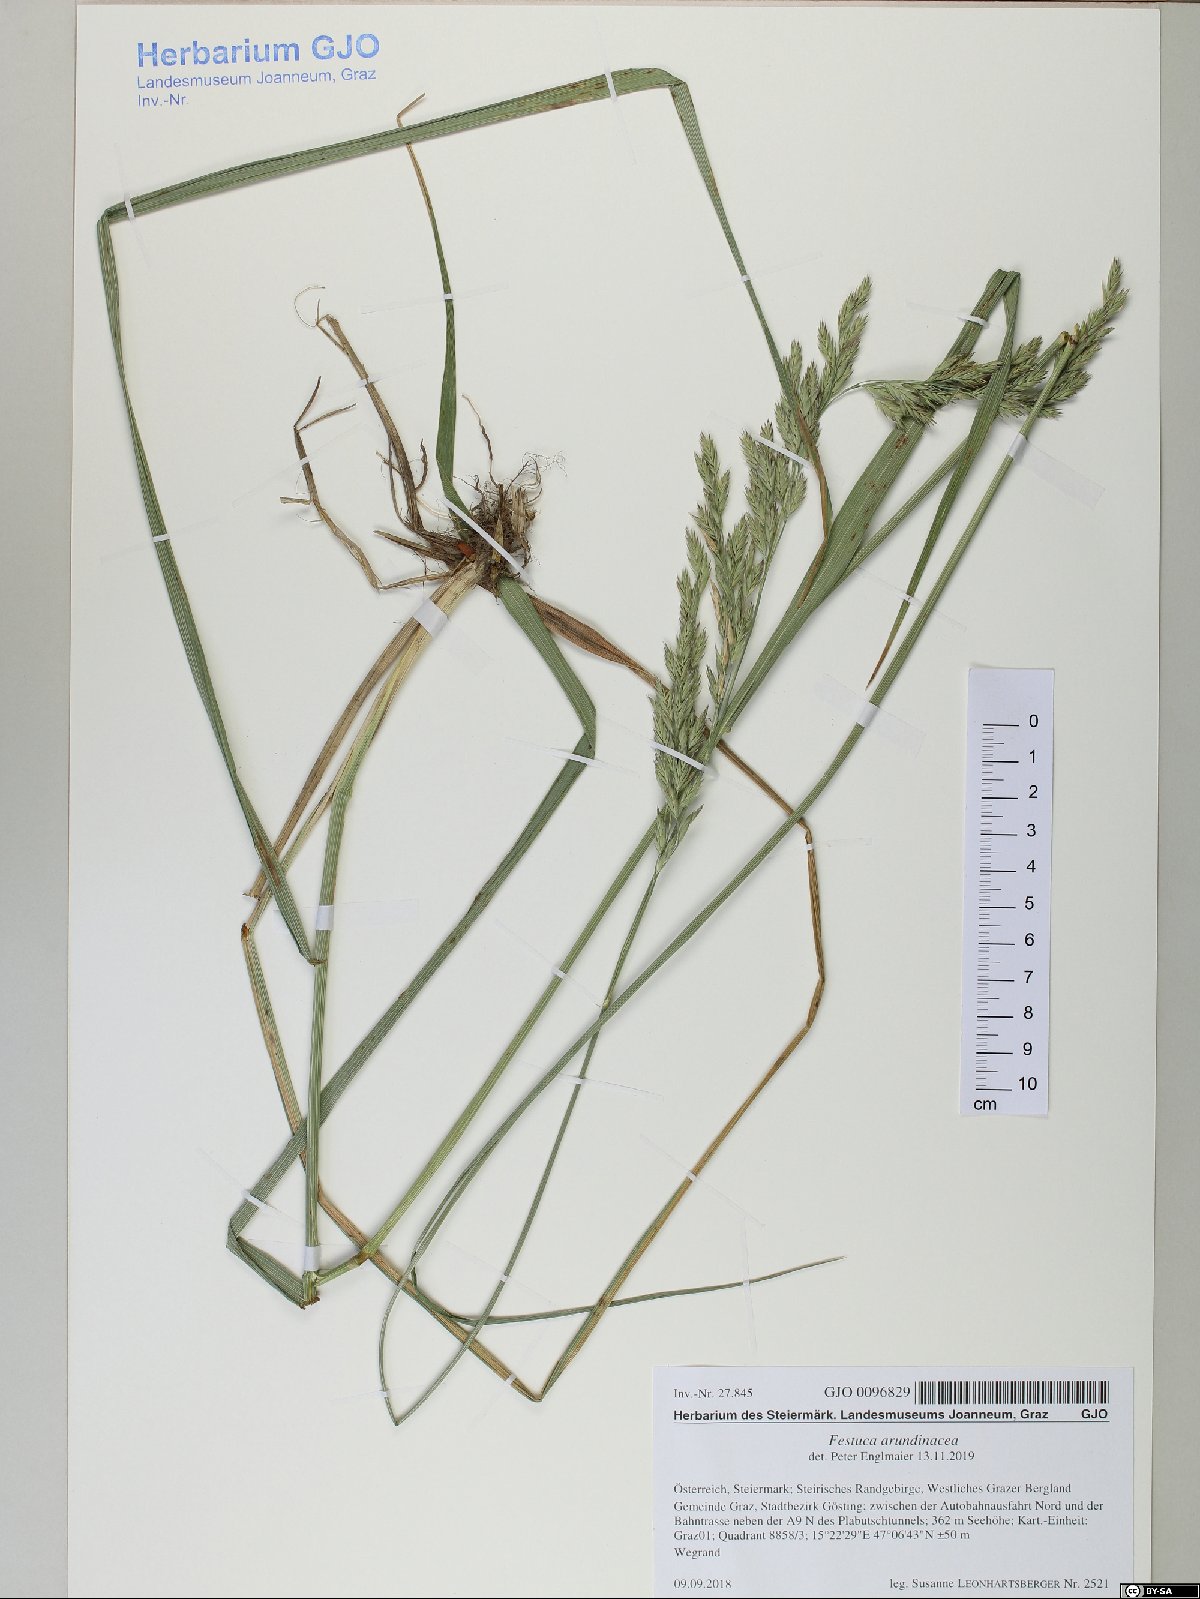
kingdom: Plantae
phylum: Tracheophyta
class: Liliopsida
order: Poales
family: Poaceae
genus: Lolium
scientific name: Lolium arundinaceum
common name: Reed fescue
